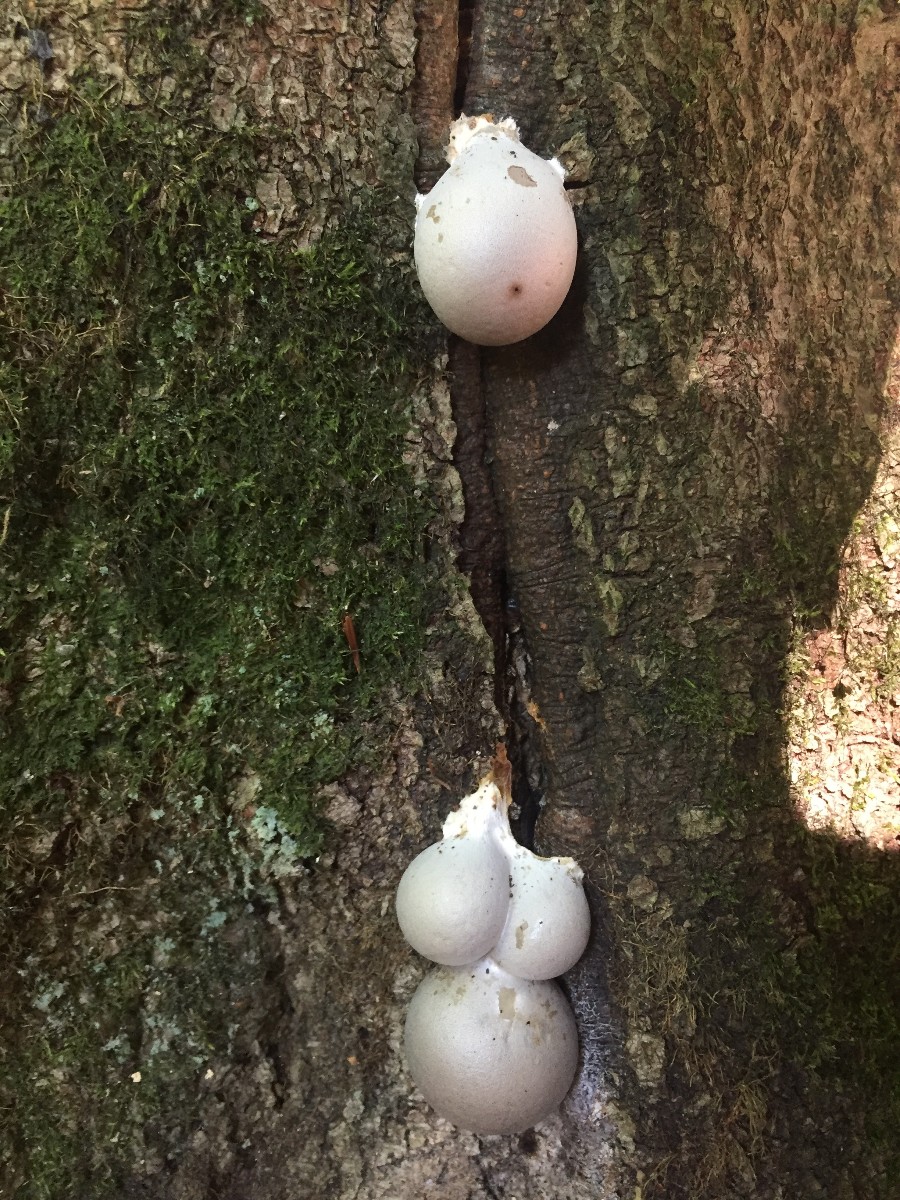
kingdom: Protozoa
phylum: Mycetozoa
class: Myxomycetes
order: Cribrariales
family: Tubiferaceae
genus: Lycogala
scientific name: Lycogala flavofuscum
